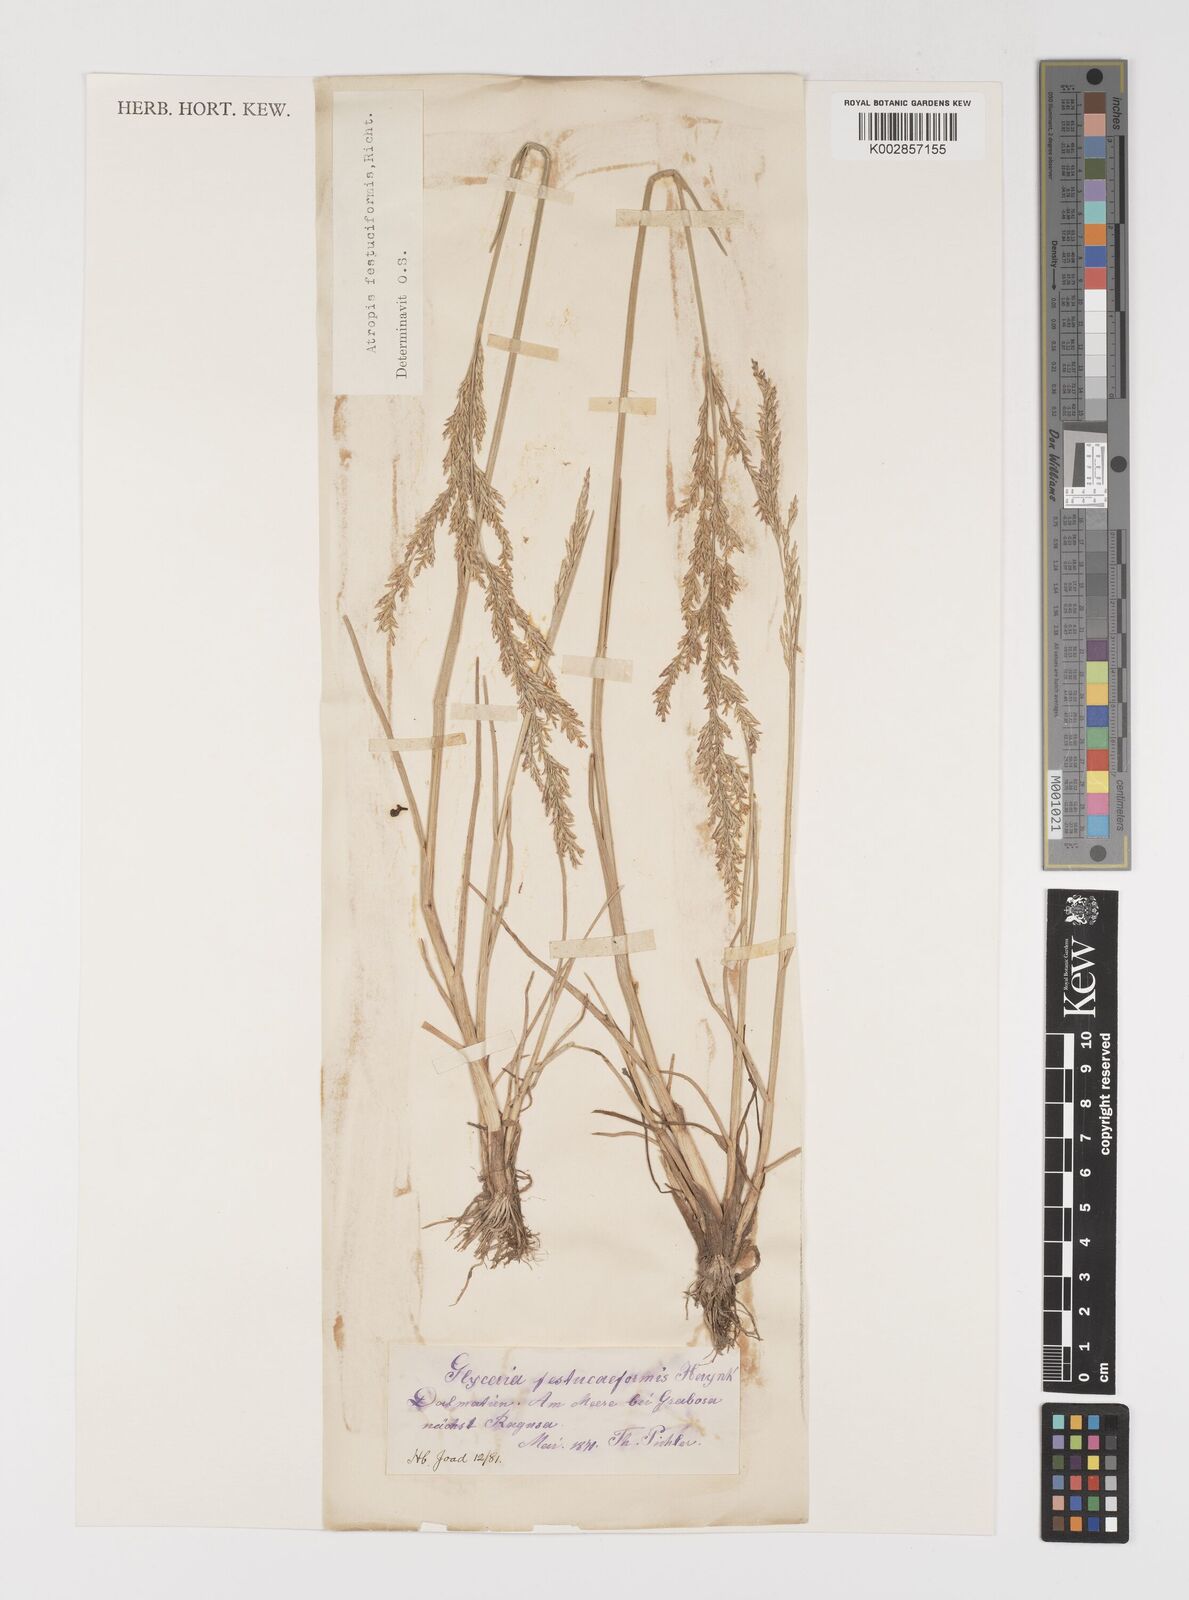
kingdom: Plantae
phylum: Tracheophyta
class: Liliopsida
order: Poales
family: Poaceae
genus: Puccinellia
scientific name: Puccinellia festuciformis
